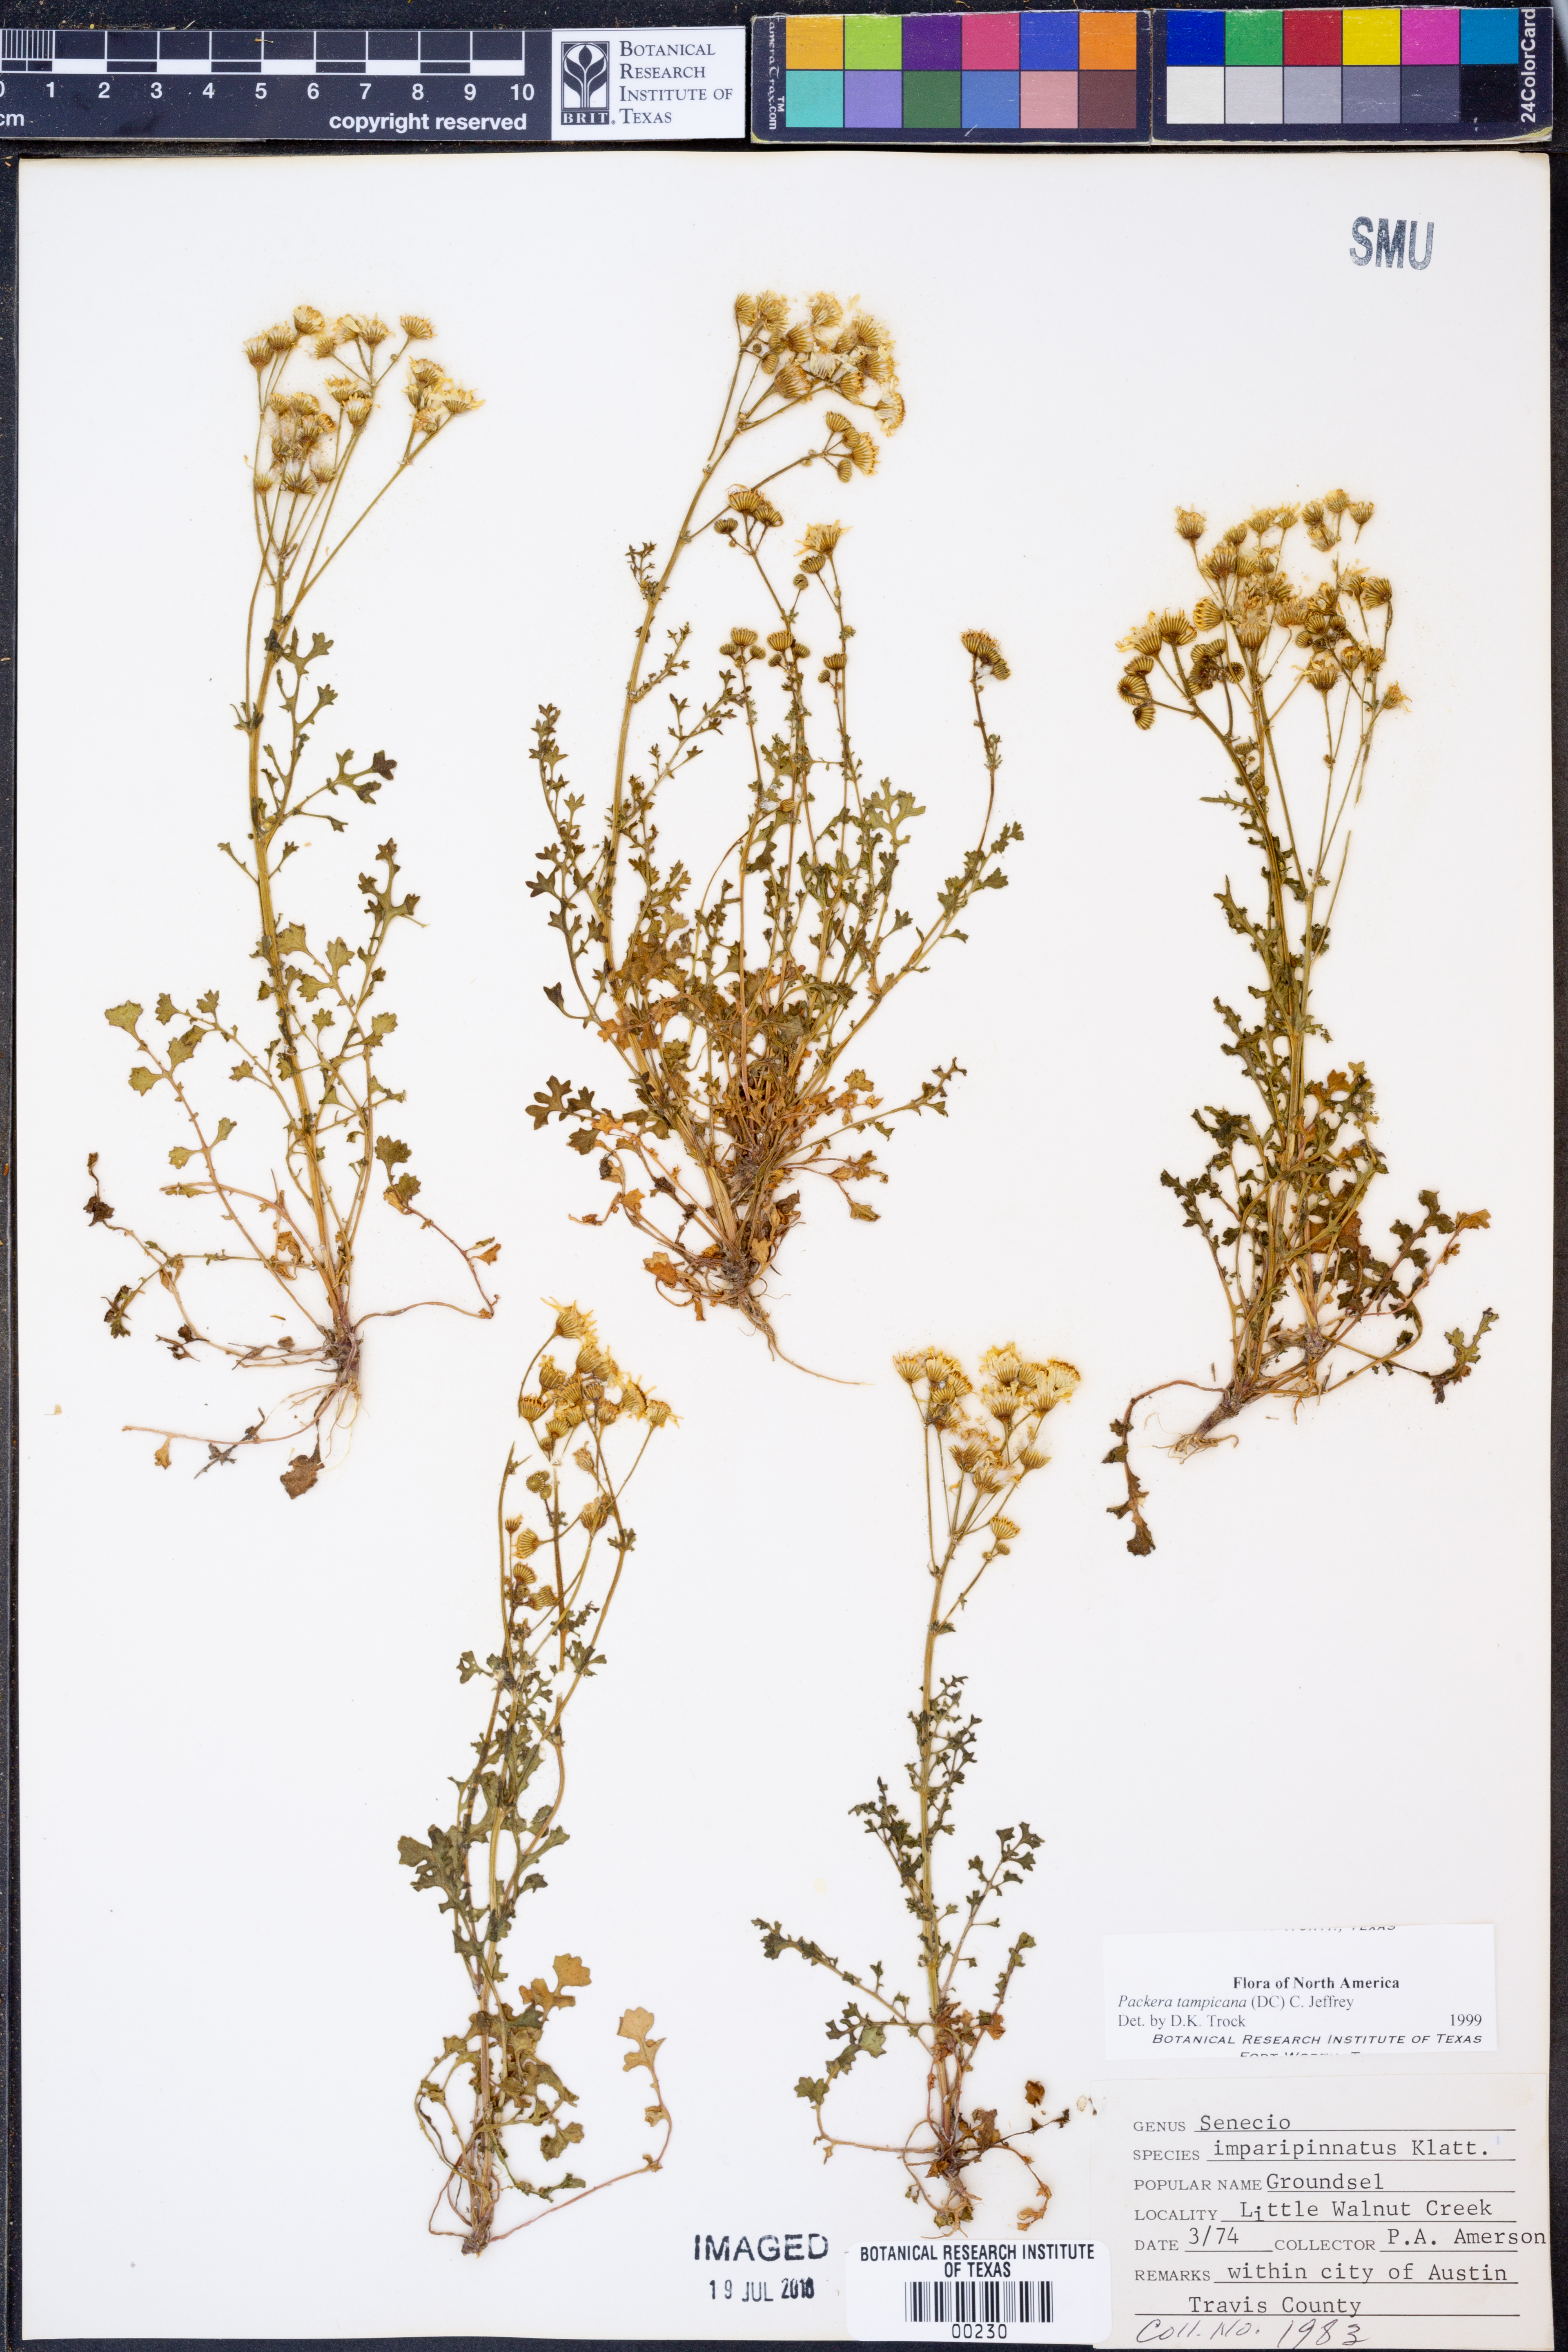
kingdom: Plantae
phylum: Tracheophyta
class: Magnoliopsida
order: Asterales
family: Asteraceae
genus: Packera
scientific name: Packera tampicana
